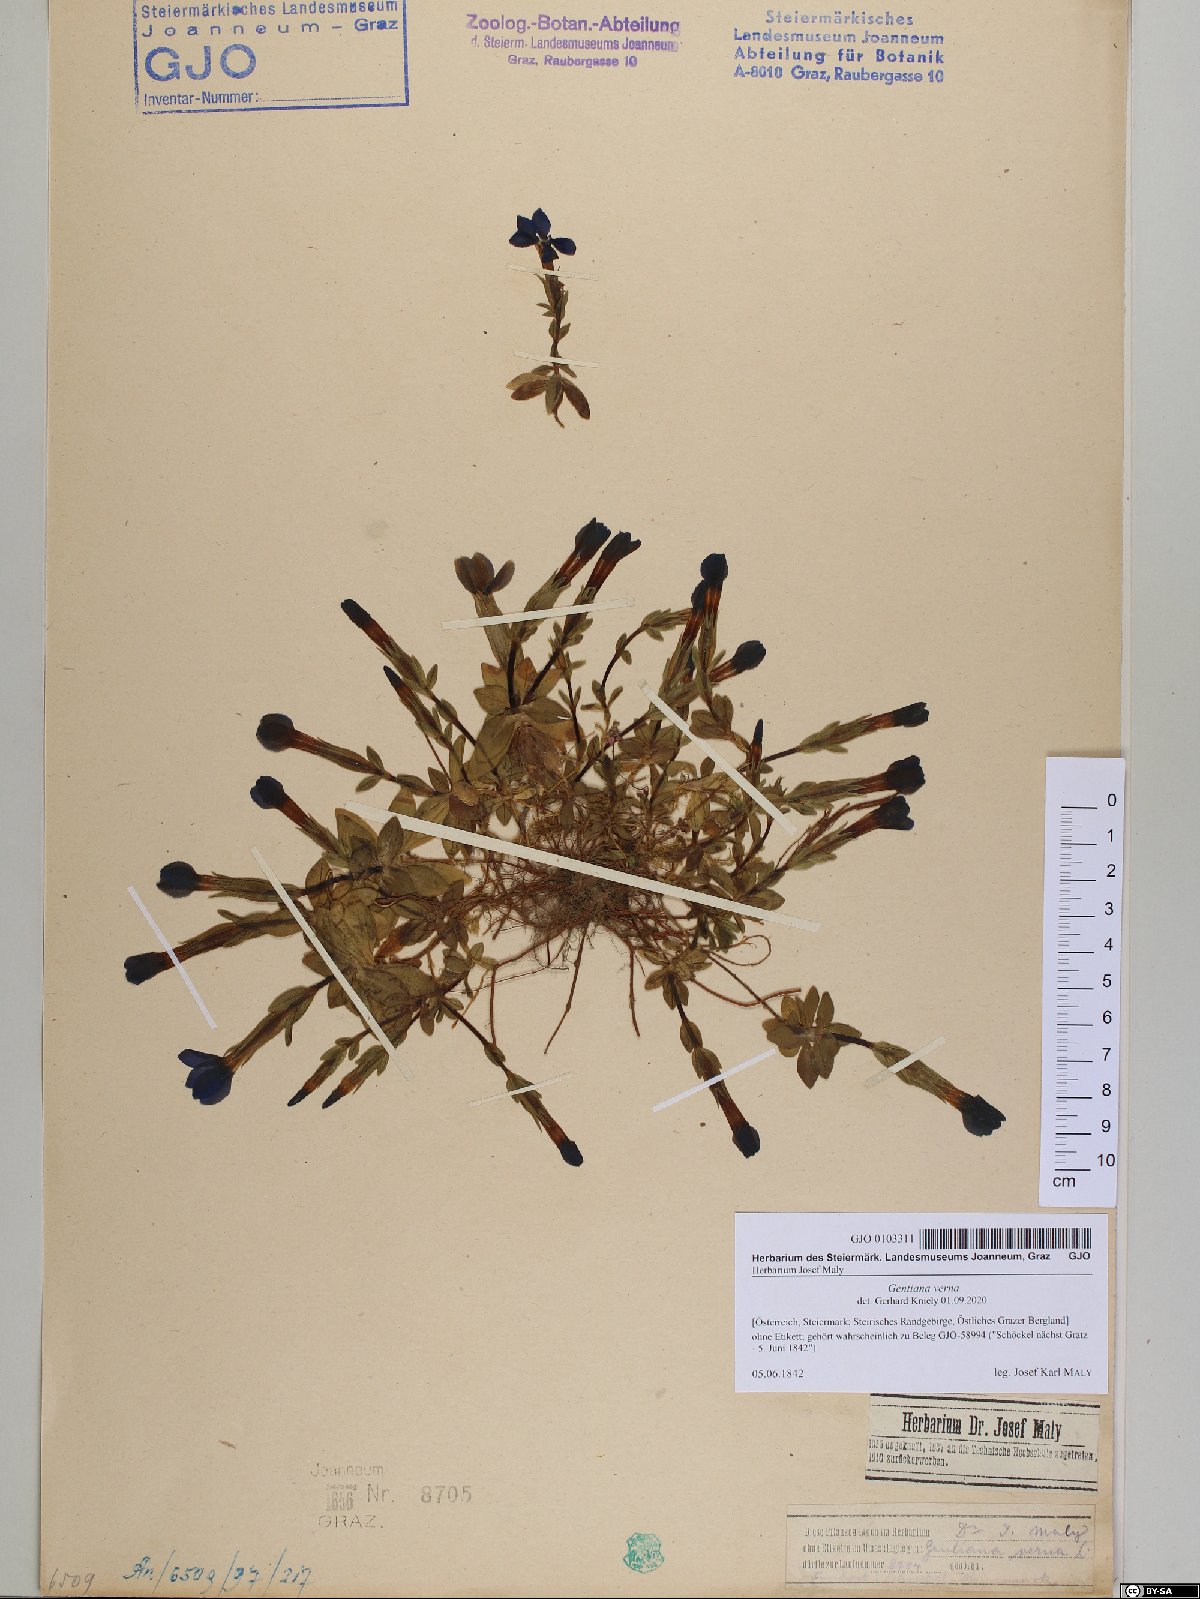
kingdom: Plantae
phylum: Tracheophyta
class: Magnoliopsida
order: Gentianales
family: Gentianaceae
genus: Gentiana
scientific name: Gentiana verna
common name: Spring gentian
